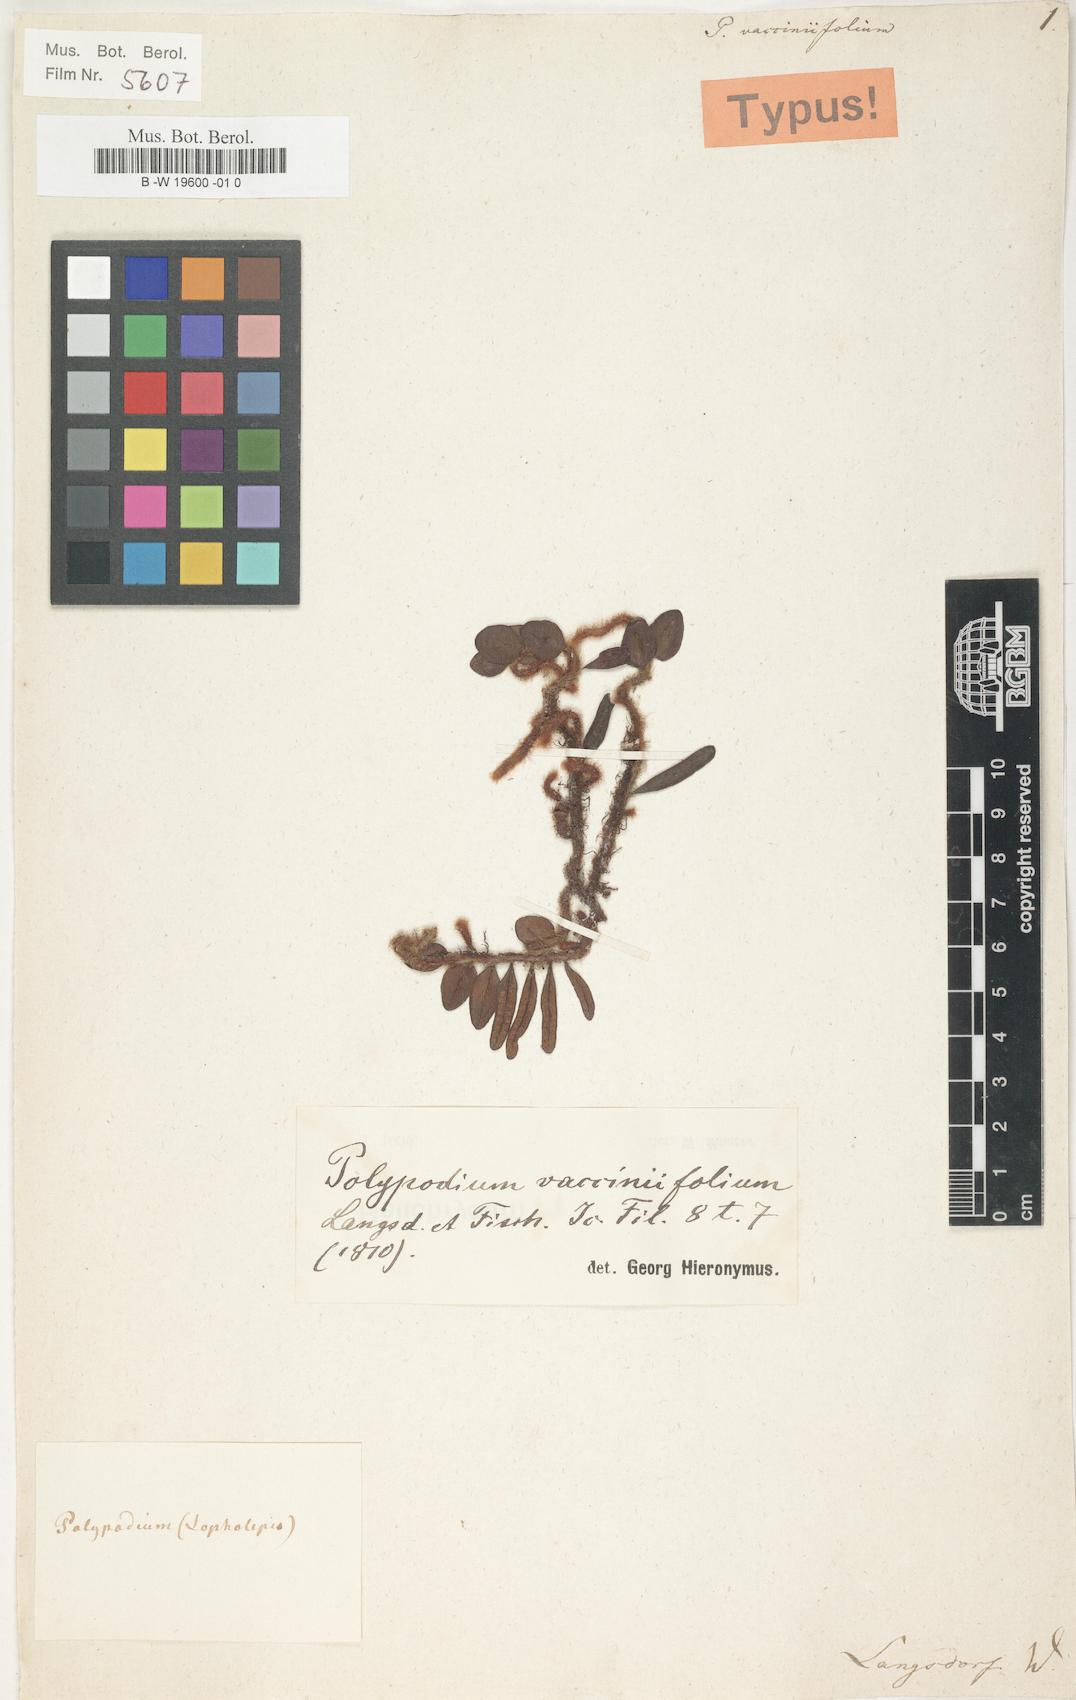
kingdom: Plantae
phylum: Tracheophyta
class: Polypodiopsida
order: Polypodiales
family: Polypodiaceae
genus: Microgramma
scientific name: Microgramma vaccinifolia
